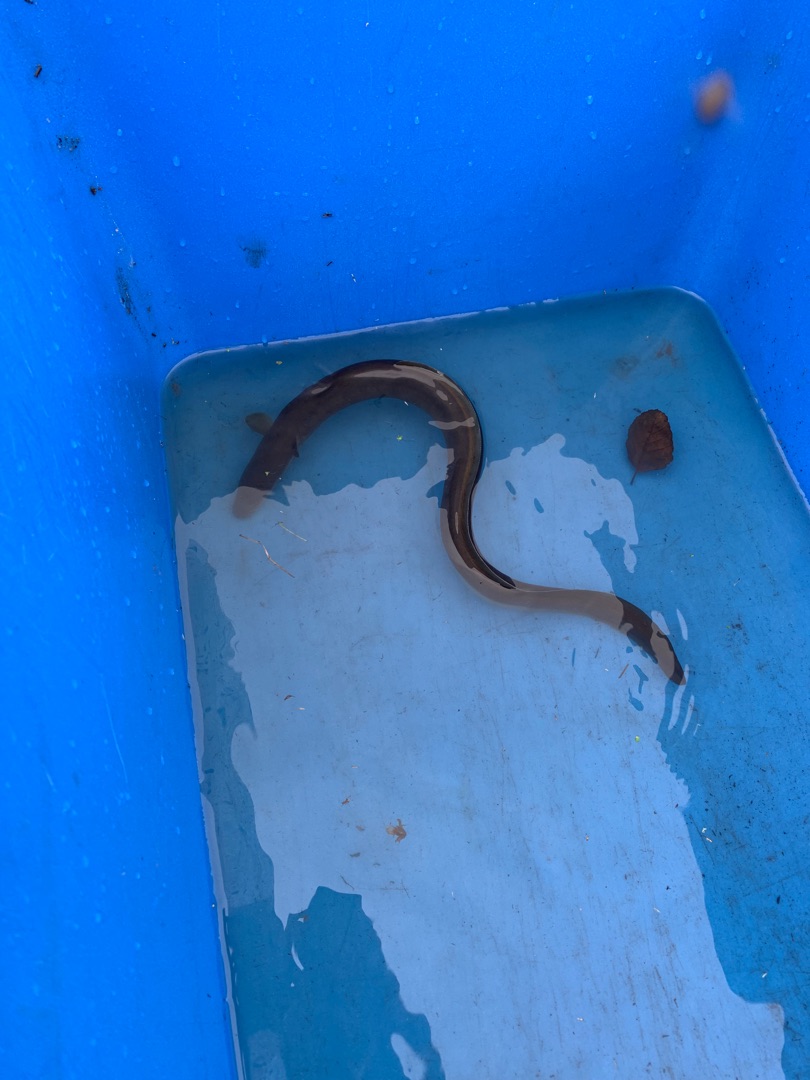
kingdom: Animalia
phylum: Chordata
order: Anguilliformes
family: Anguillidae
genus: Anguilla
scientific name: Anguilla anguilla
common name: Europæisk ål
